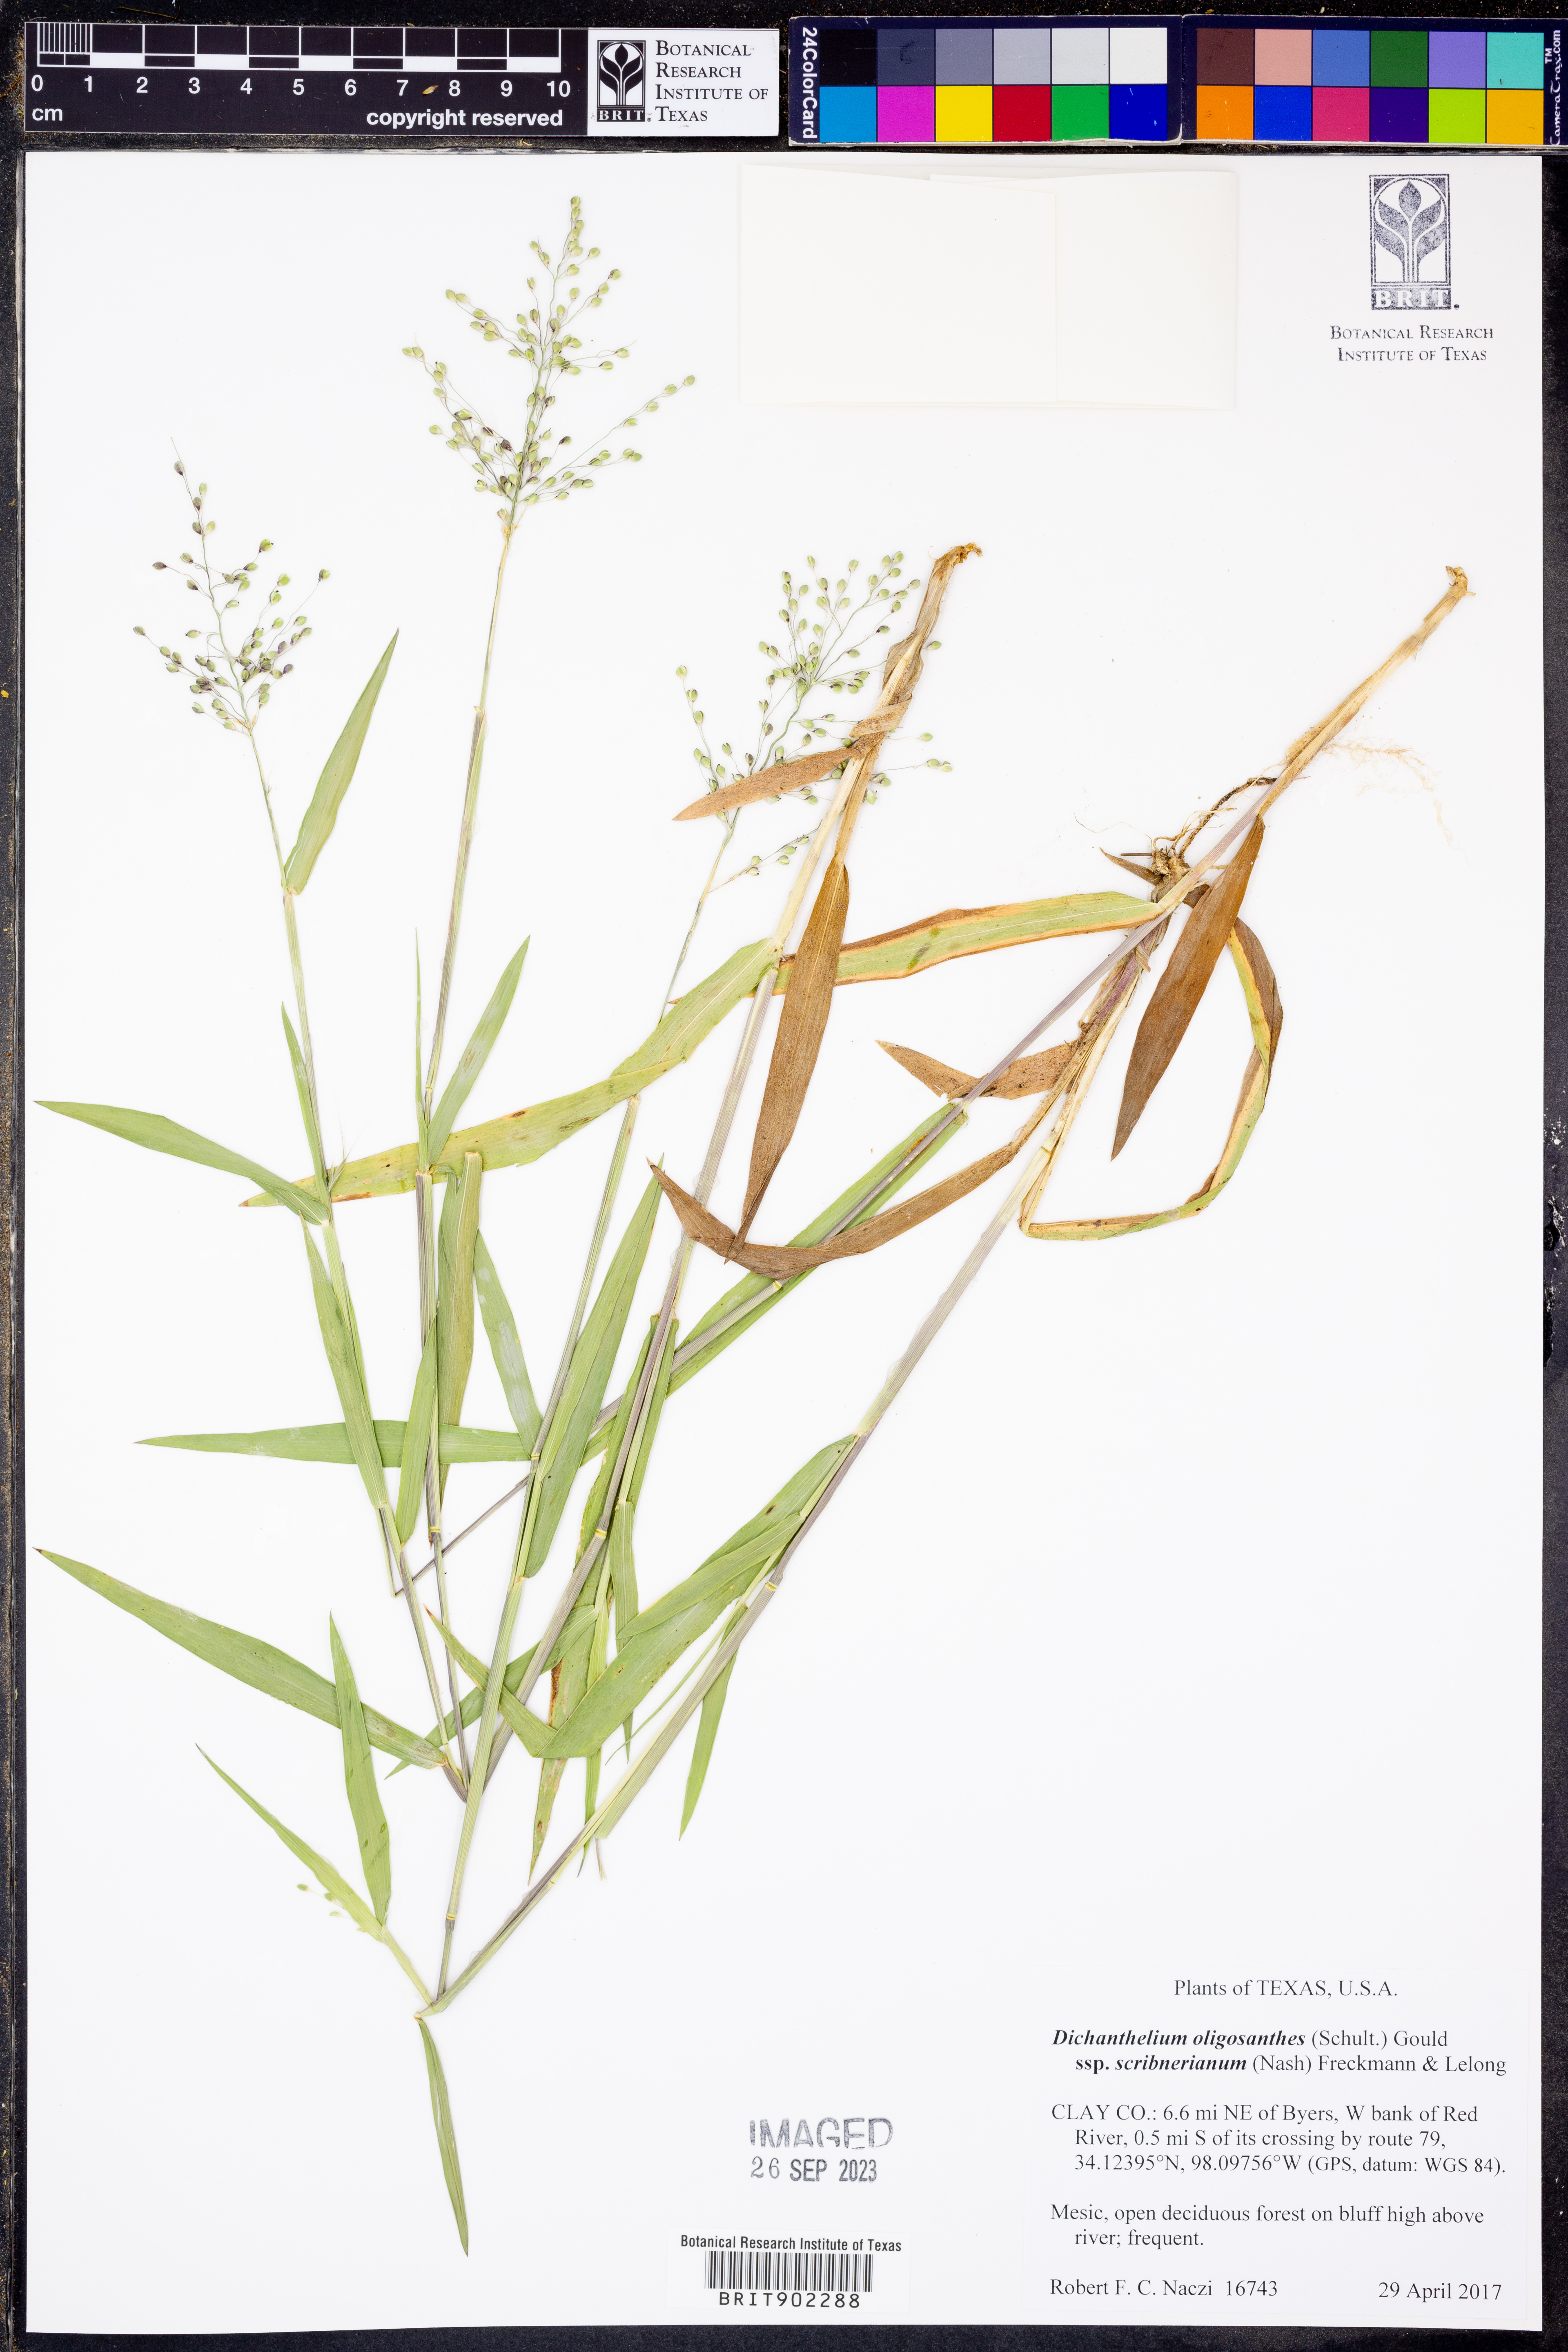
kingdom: Plantae
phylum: Tracheophyta
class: Liliopsida
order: Poales
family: Poaceae
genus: Dichanthelium
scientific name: Dichanthelium scribnerianum
